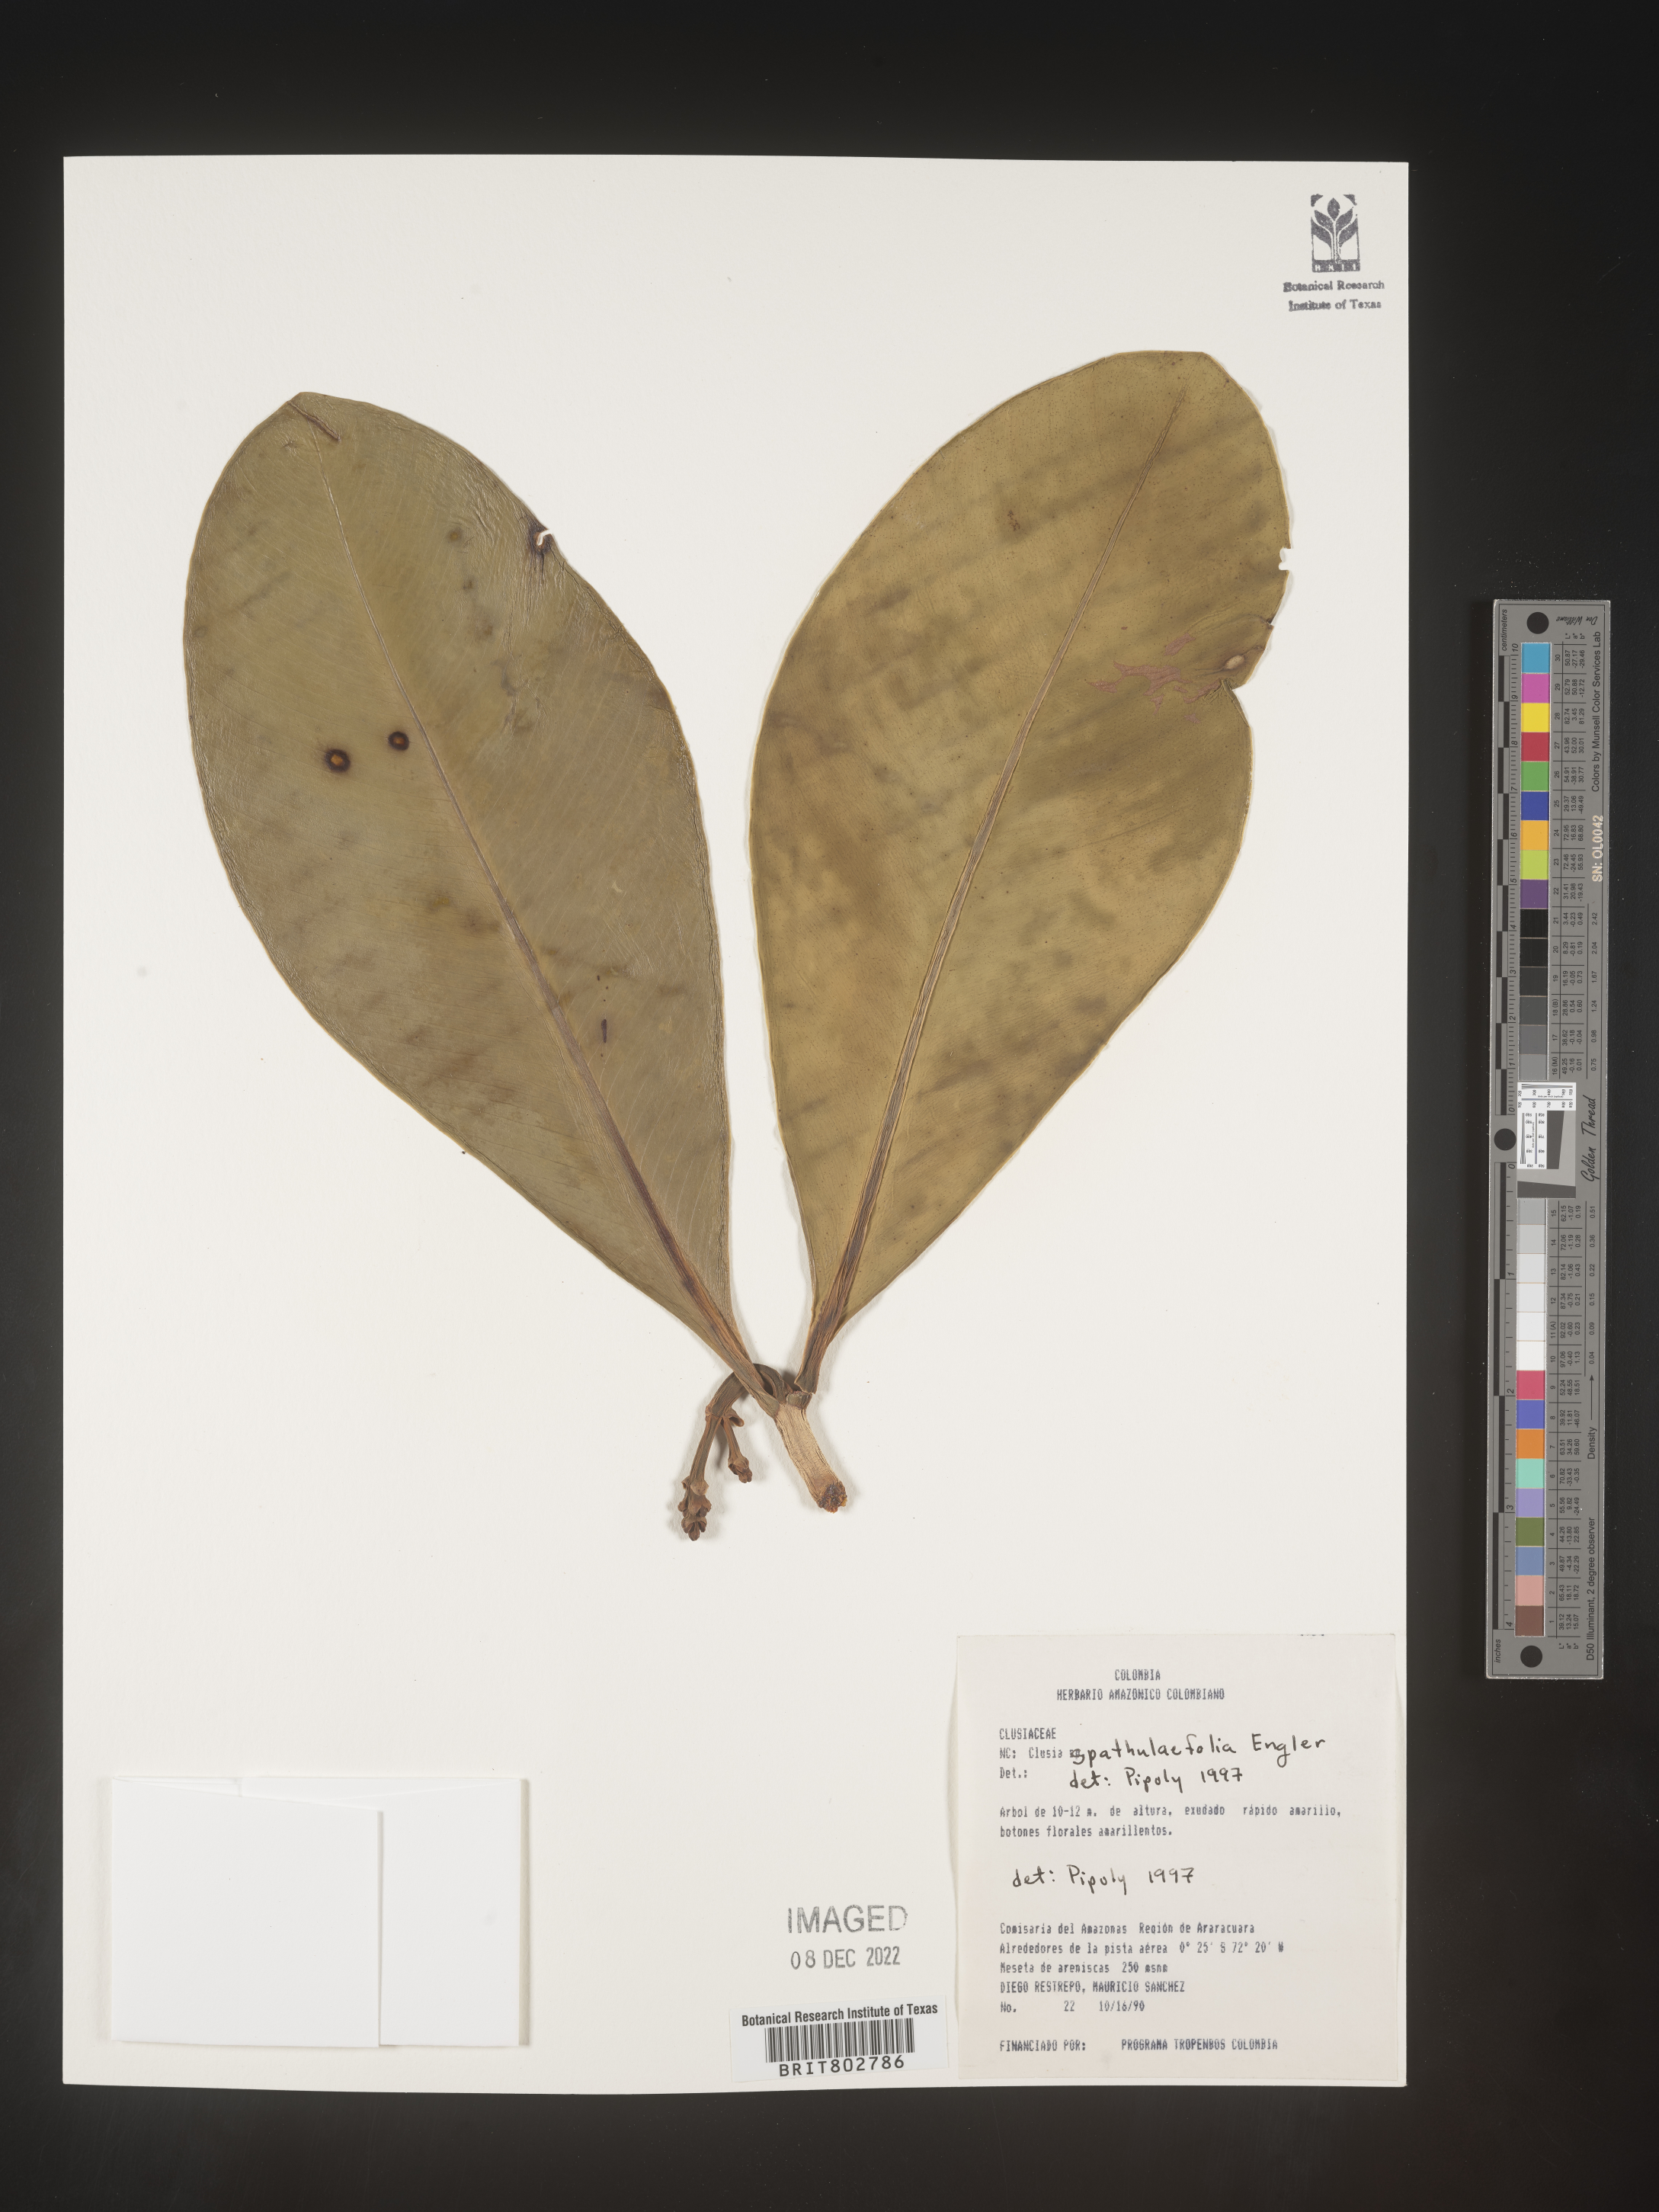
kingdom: Plantae
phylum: Tracheophyta
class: Magnoliopsida
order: Malpighiales
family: Clusiaceae
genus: Clusia
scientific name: Clusia spathulifolia
